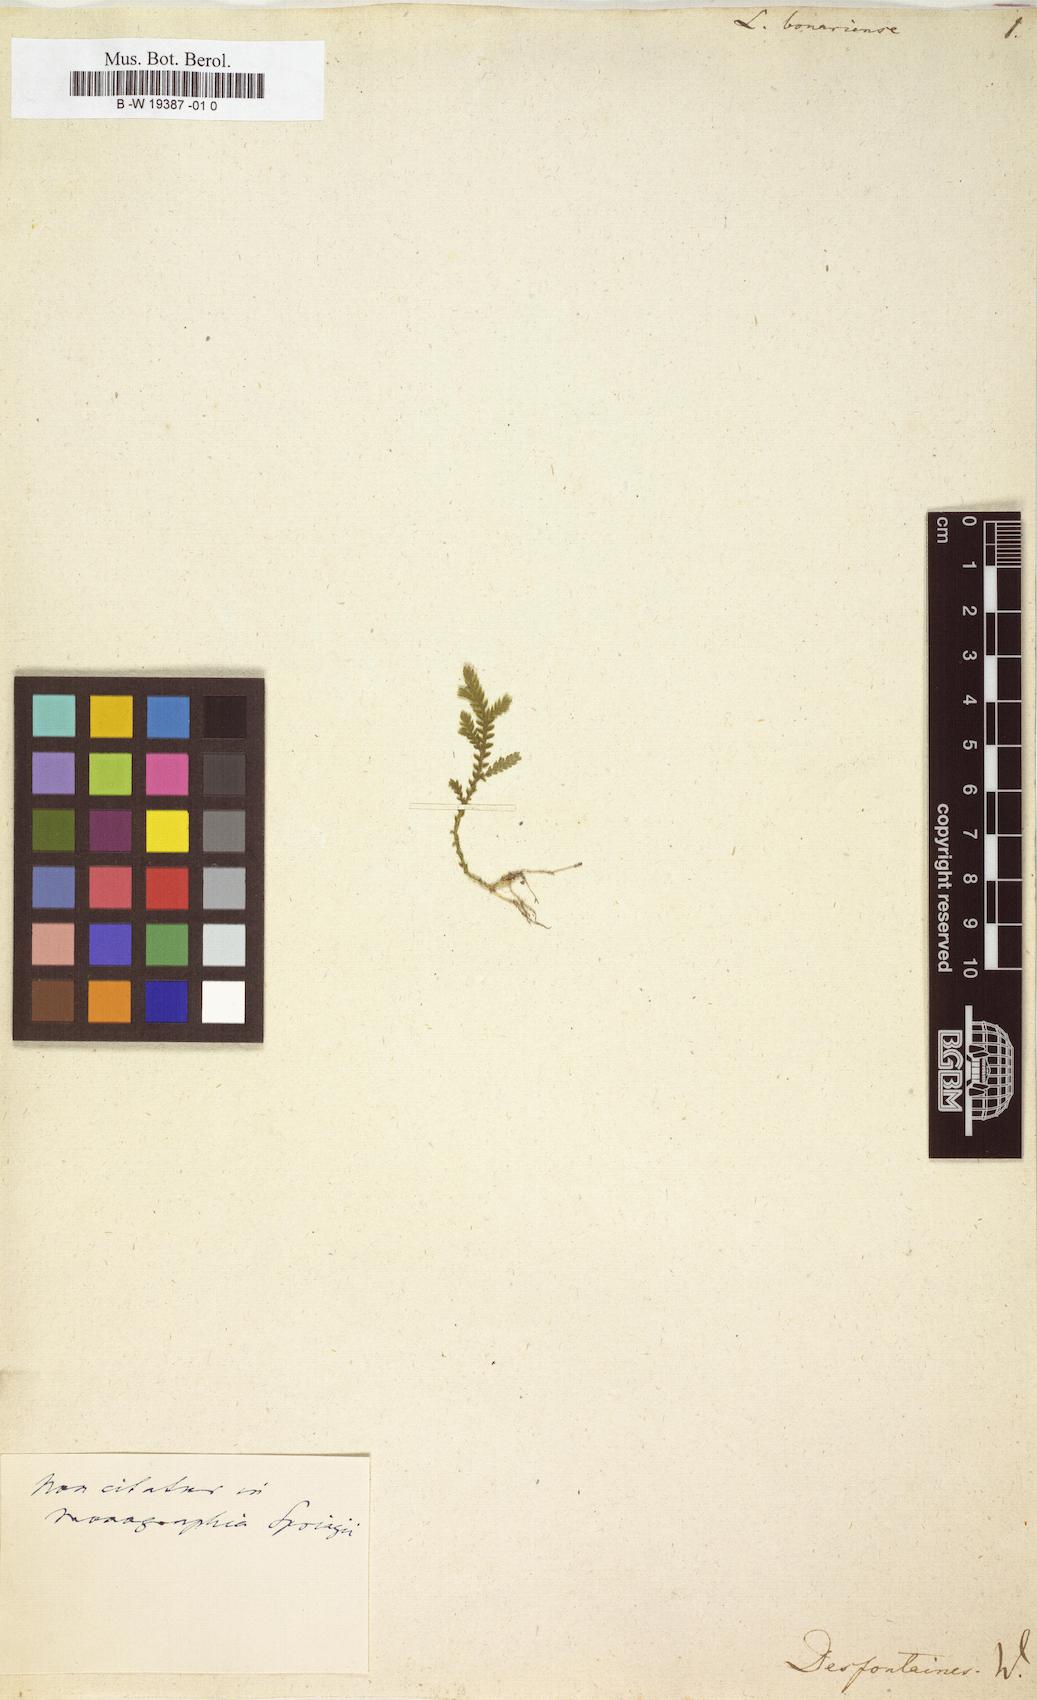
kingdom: Plantae
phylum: Tracheophyta
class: Lycopodiopsida
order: Lycopodiales
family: Lycopodiaceae
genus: Lycopodium
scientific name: Lycopodium
